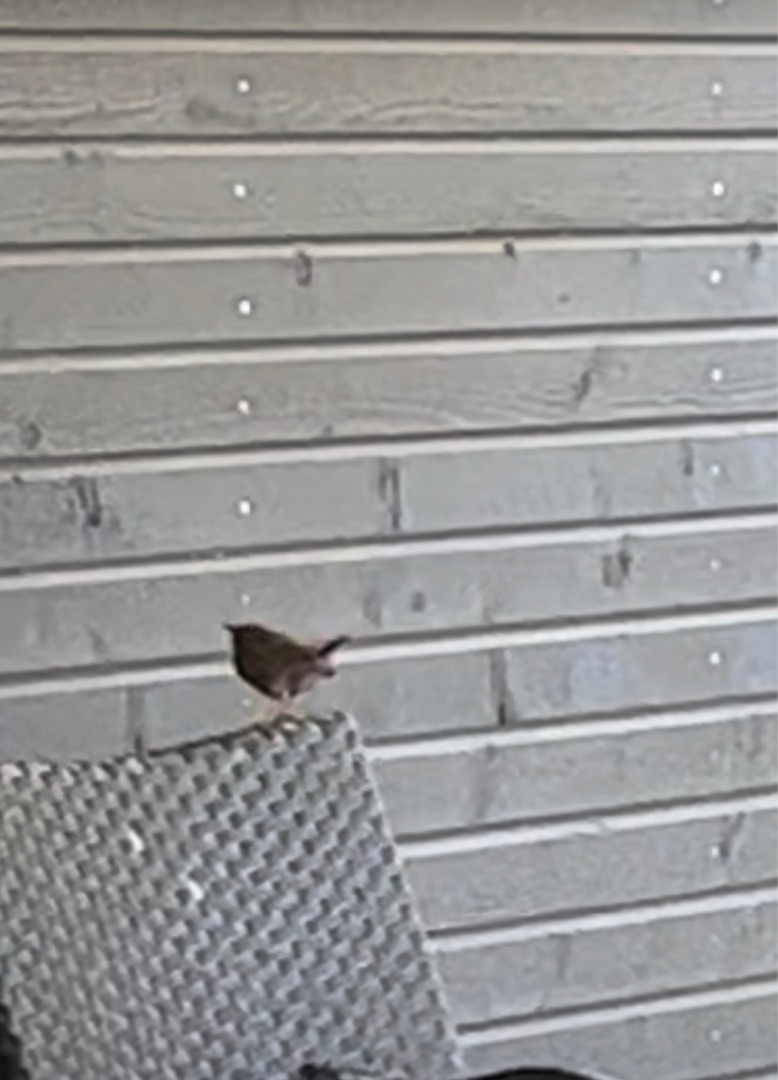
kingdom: Animalia
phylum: Chordata
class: Aves
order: Passeriformes
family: Troglodytidae
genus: Troglodytes
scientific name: Troglodytes troglodytes
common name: Gærdesmutte
